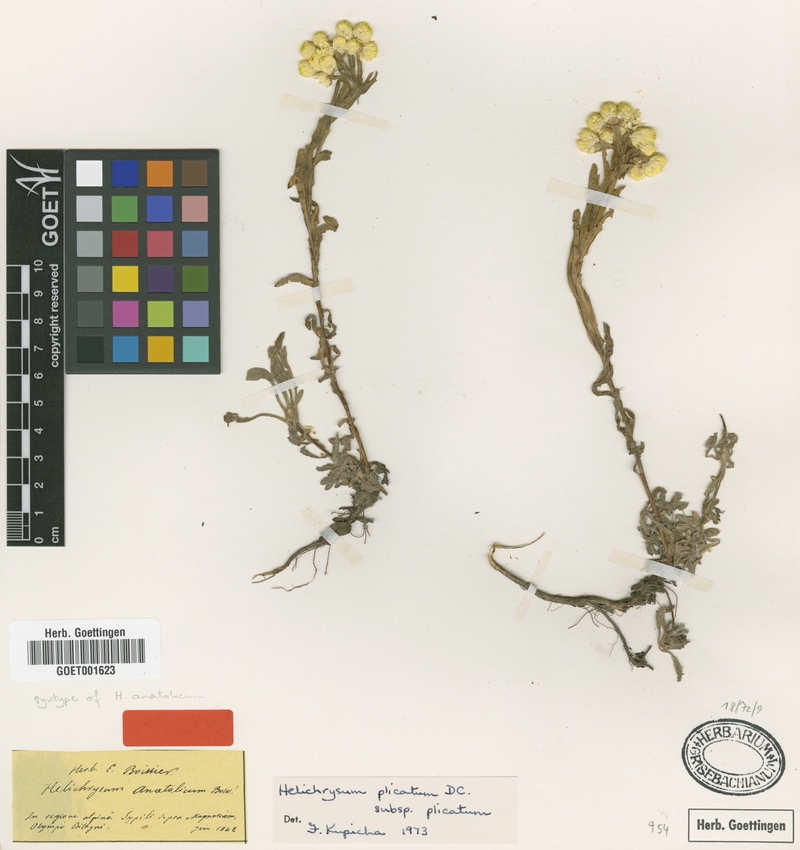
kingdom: Plantae
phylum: Tracheophyta
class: Magnoliopsida
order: Asterales
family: Asteraceae
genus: Helichrysum
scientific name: Helichrysum plicatum
